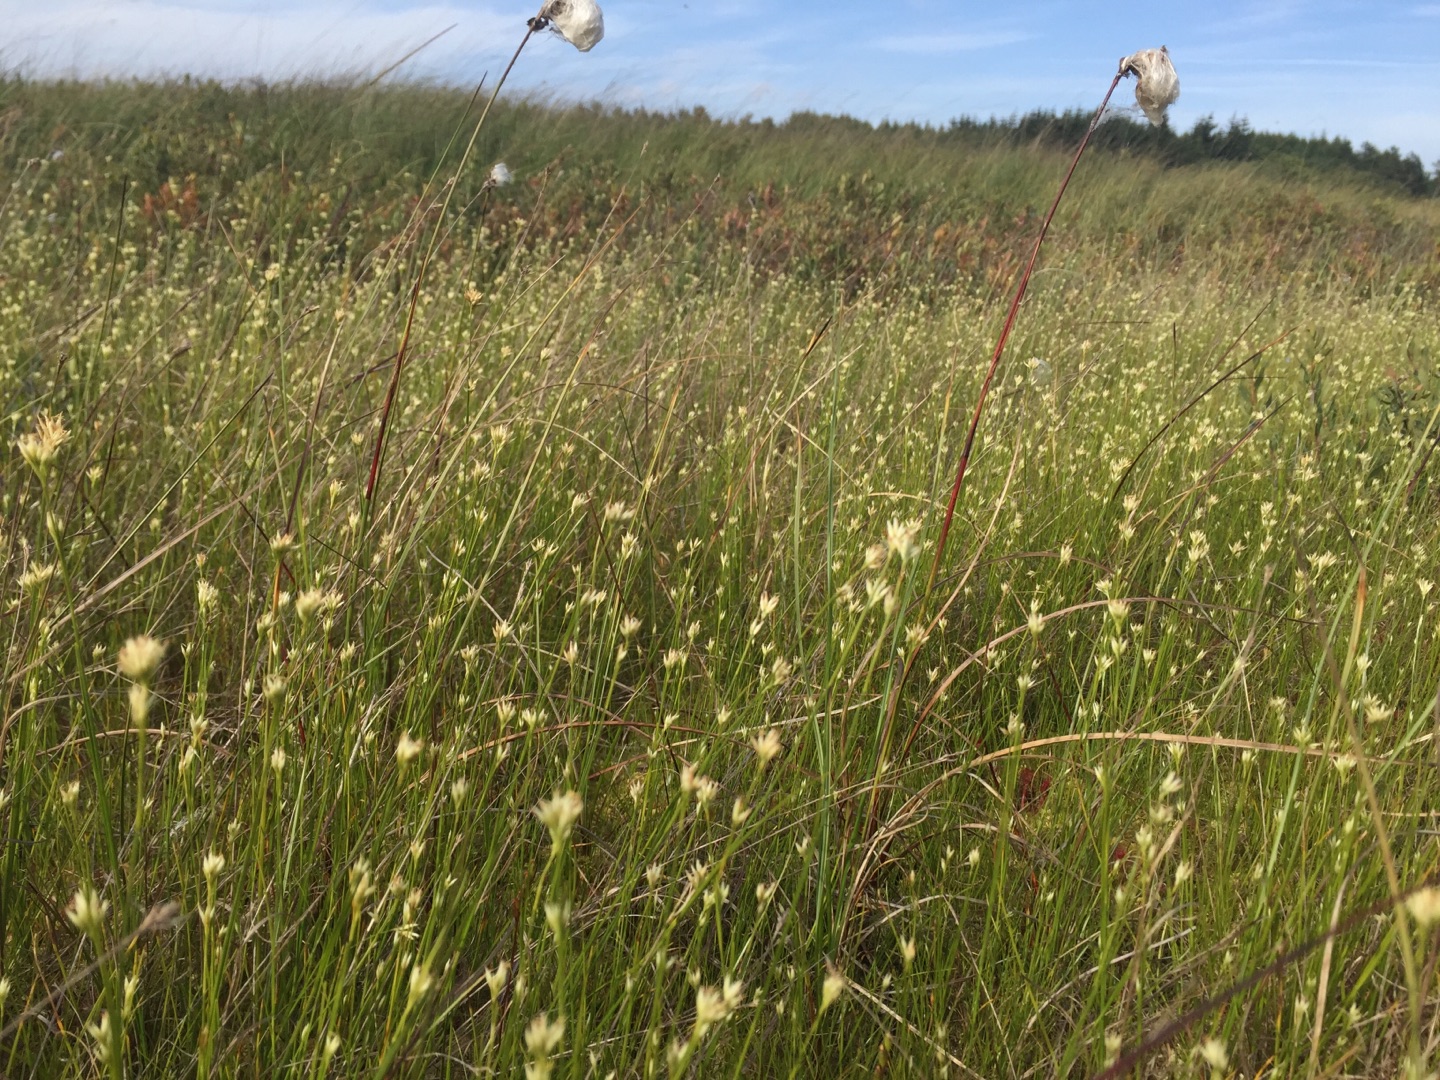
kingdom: Plantae
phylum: Tracheophyta
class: Liliopsida
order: Poales
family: Cyperaceae
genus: Rhynchospora
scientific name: Rhynchospora alba
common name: Hvid næbfrø
